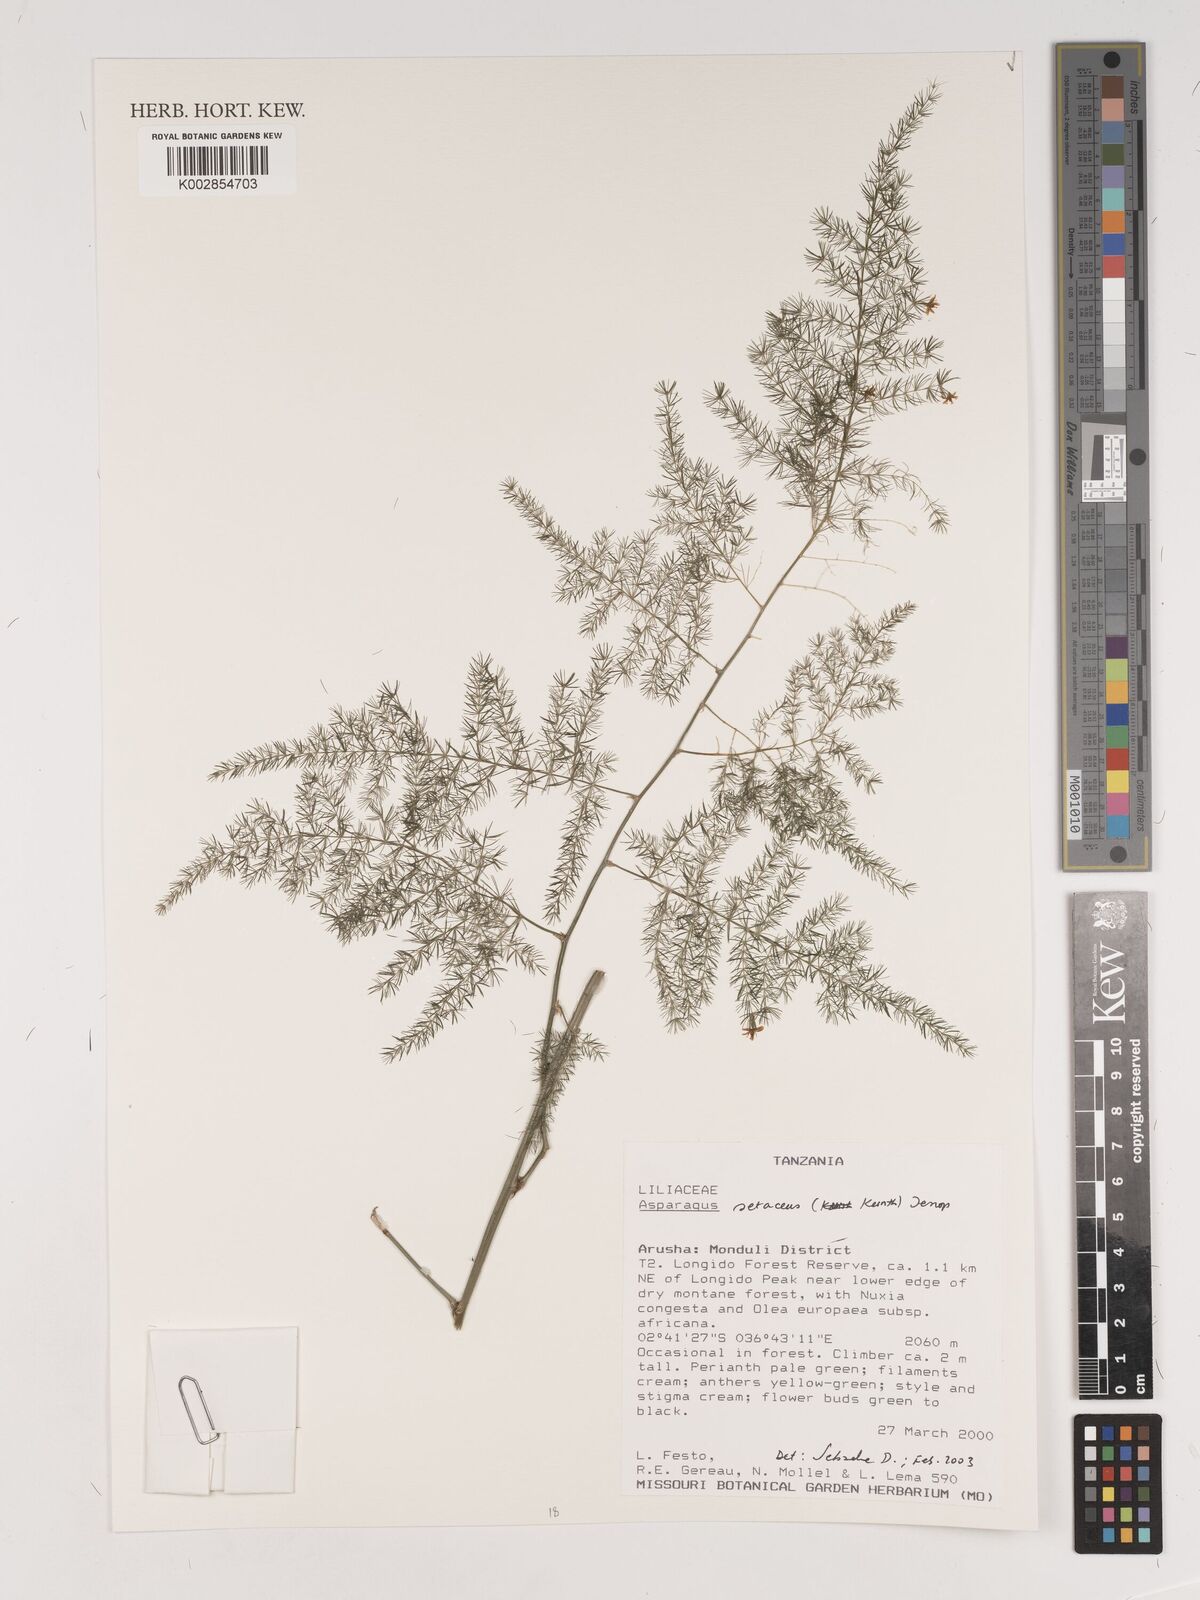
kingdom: Plantae
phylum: Tracheophyta
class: Liliopsida
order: Asparagales
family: Asparagaceae
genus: Asparagus
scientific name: Asparagus setaceus
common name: Common asparagus fern
